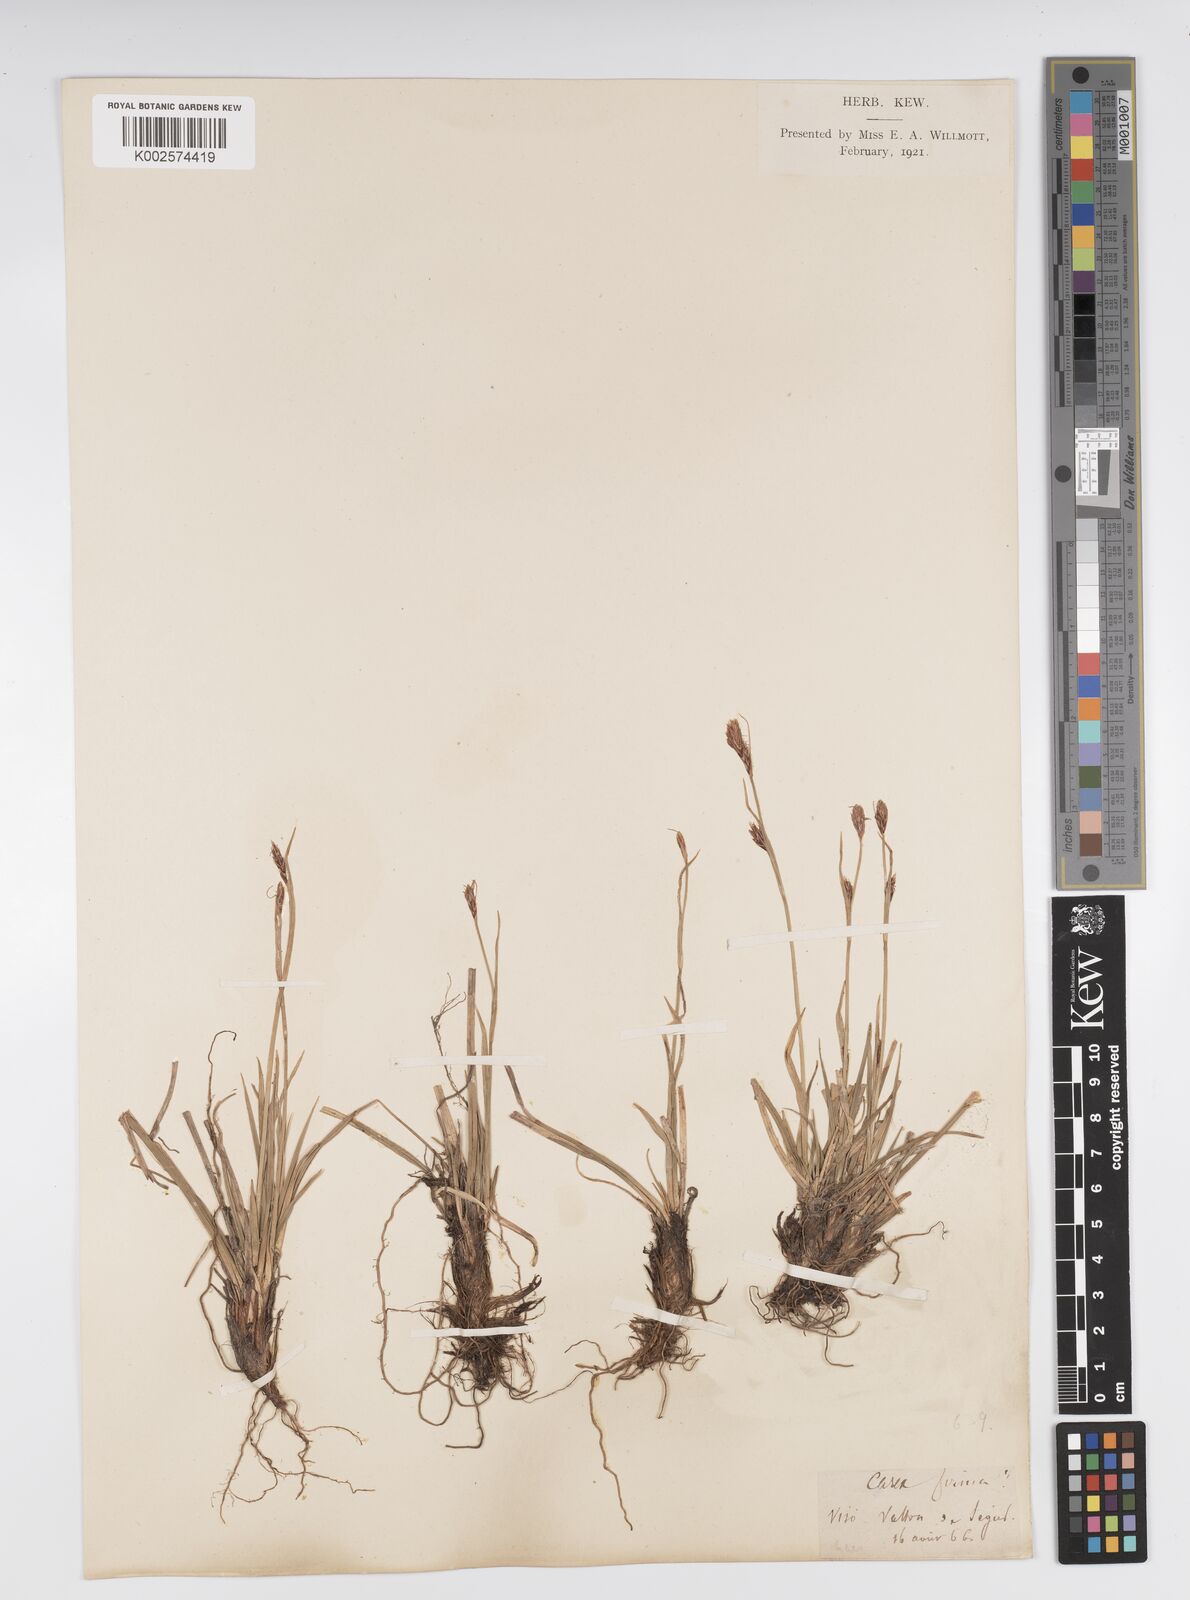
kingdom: Plantae
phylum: Tracheophyta
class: Liliopsida
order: Poales
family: Cyperaceae
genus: Carex
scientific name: Carex firma
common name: Dwarf pillow sedge
